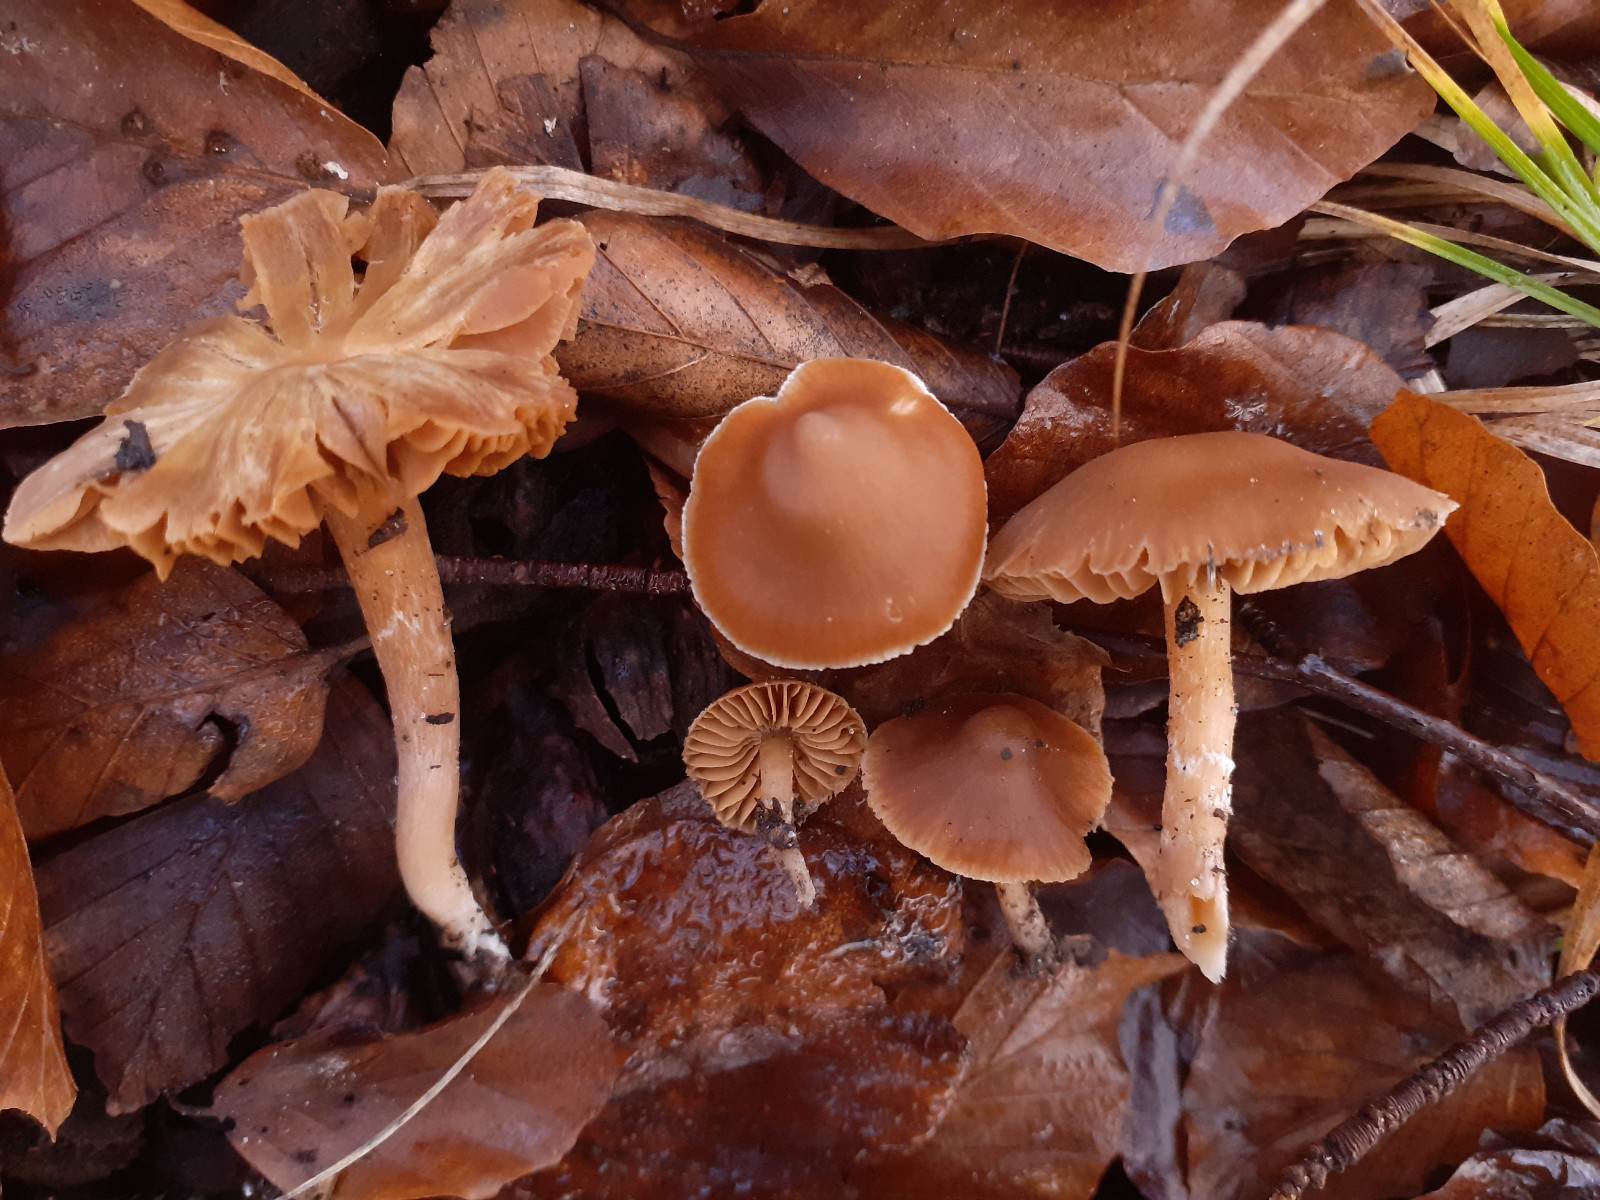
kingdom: Fungi
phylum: Basidiomycota
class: Agaricomycetes
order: Agaricales
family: Cortinariaceae
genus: Cortinarius
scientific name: Cortinarius obtusorum
